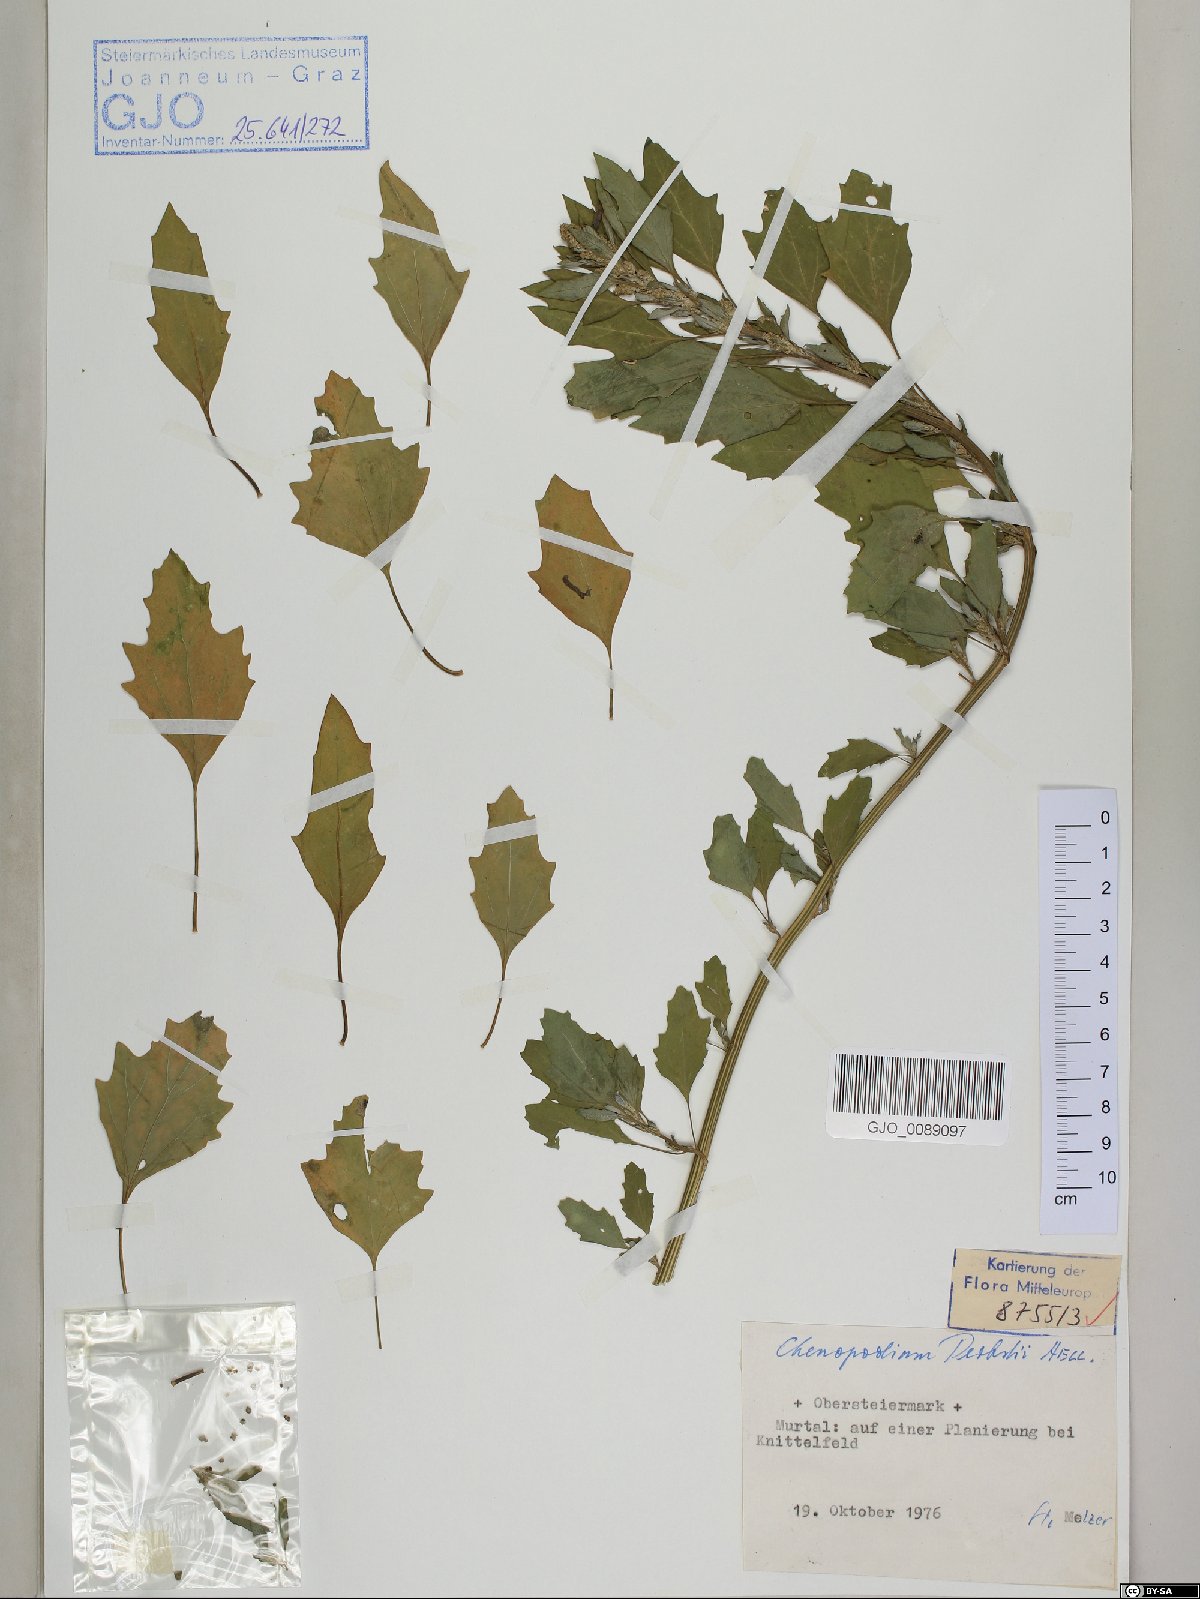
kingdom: Plantae
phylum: Tracheophyta
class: Magnoliopsida
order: Caryophyllales
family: Amaranthaceae
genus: Chenopodium
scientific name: Chenopodium probstii
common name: Probst's goosefoot
